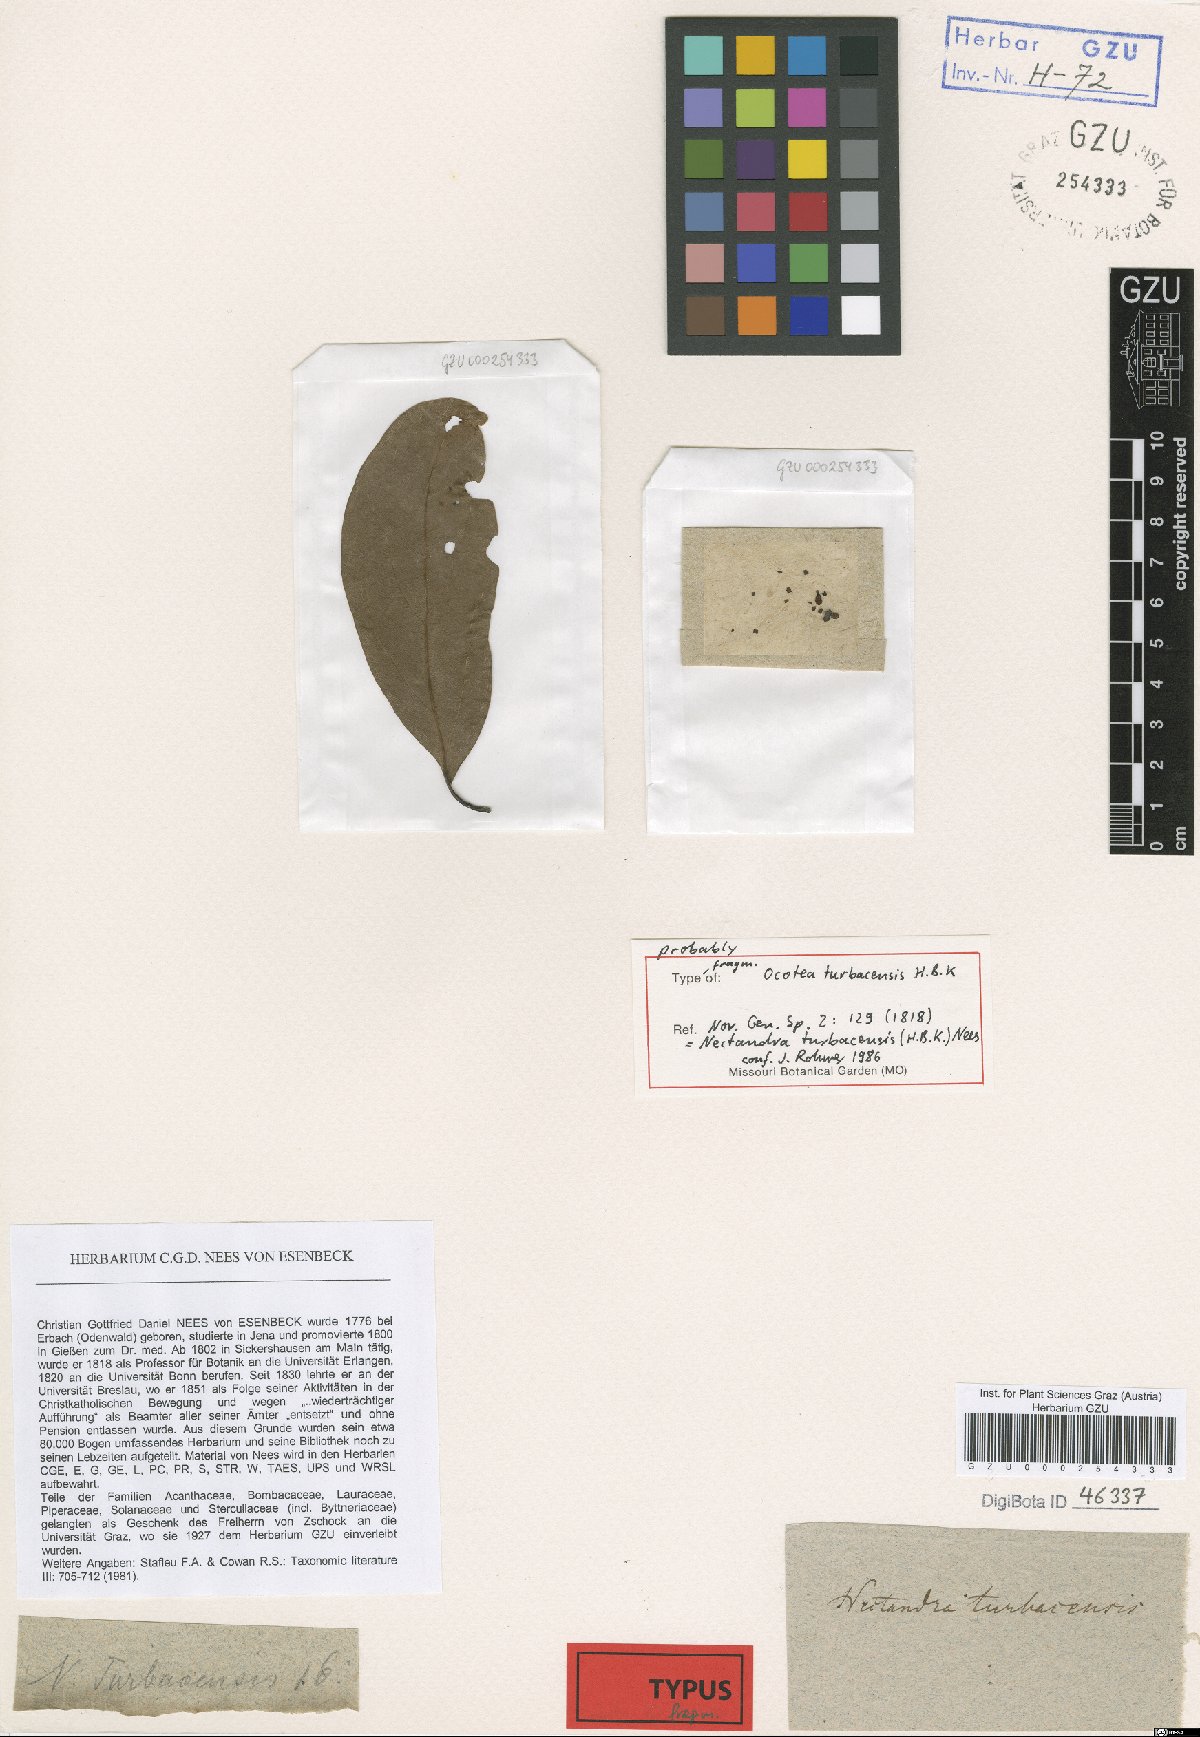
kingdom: Plantae
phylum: Tracheophyta
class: Magnoliopsida
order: Laurales
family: Lauraceae
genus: Nectandra
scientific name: Nectandra turbacensis
